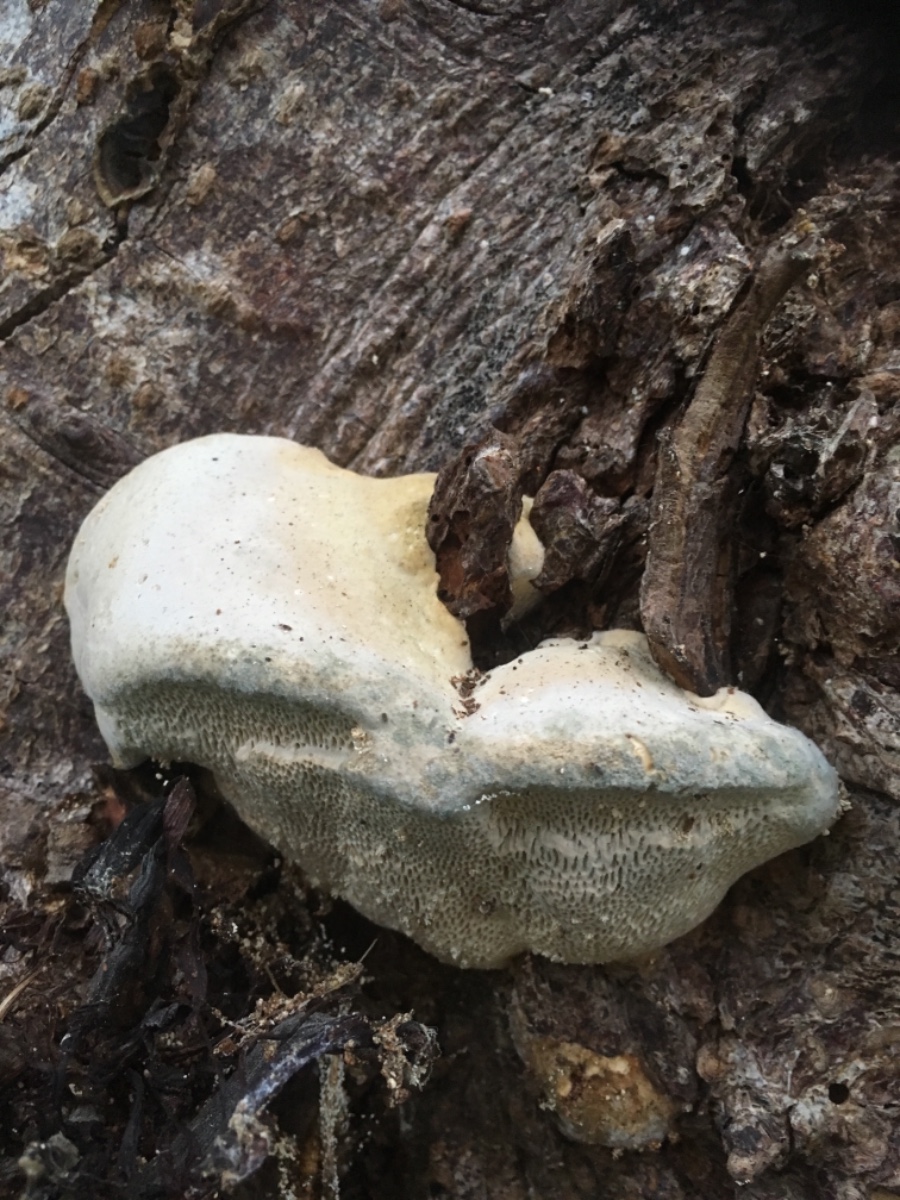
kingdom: Fungi
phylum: Basidiomycota
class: Agaricomycetes
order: Polyporales
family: Polyporaceae
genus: Trametes
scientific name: Trametes gibbosa
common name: puklet læderporesvamp
